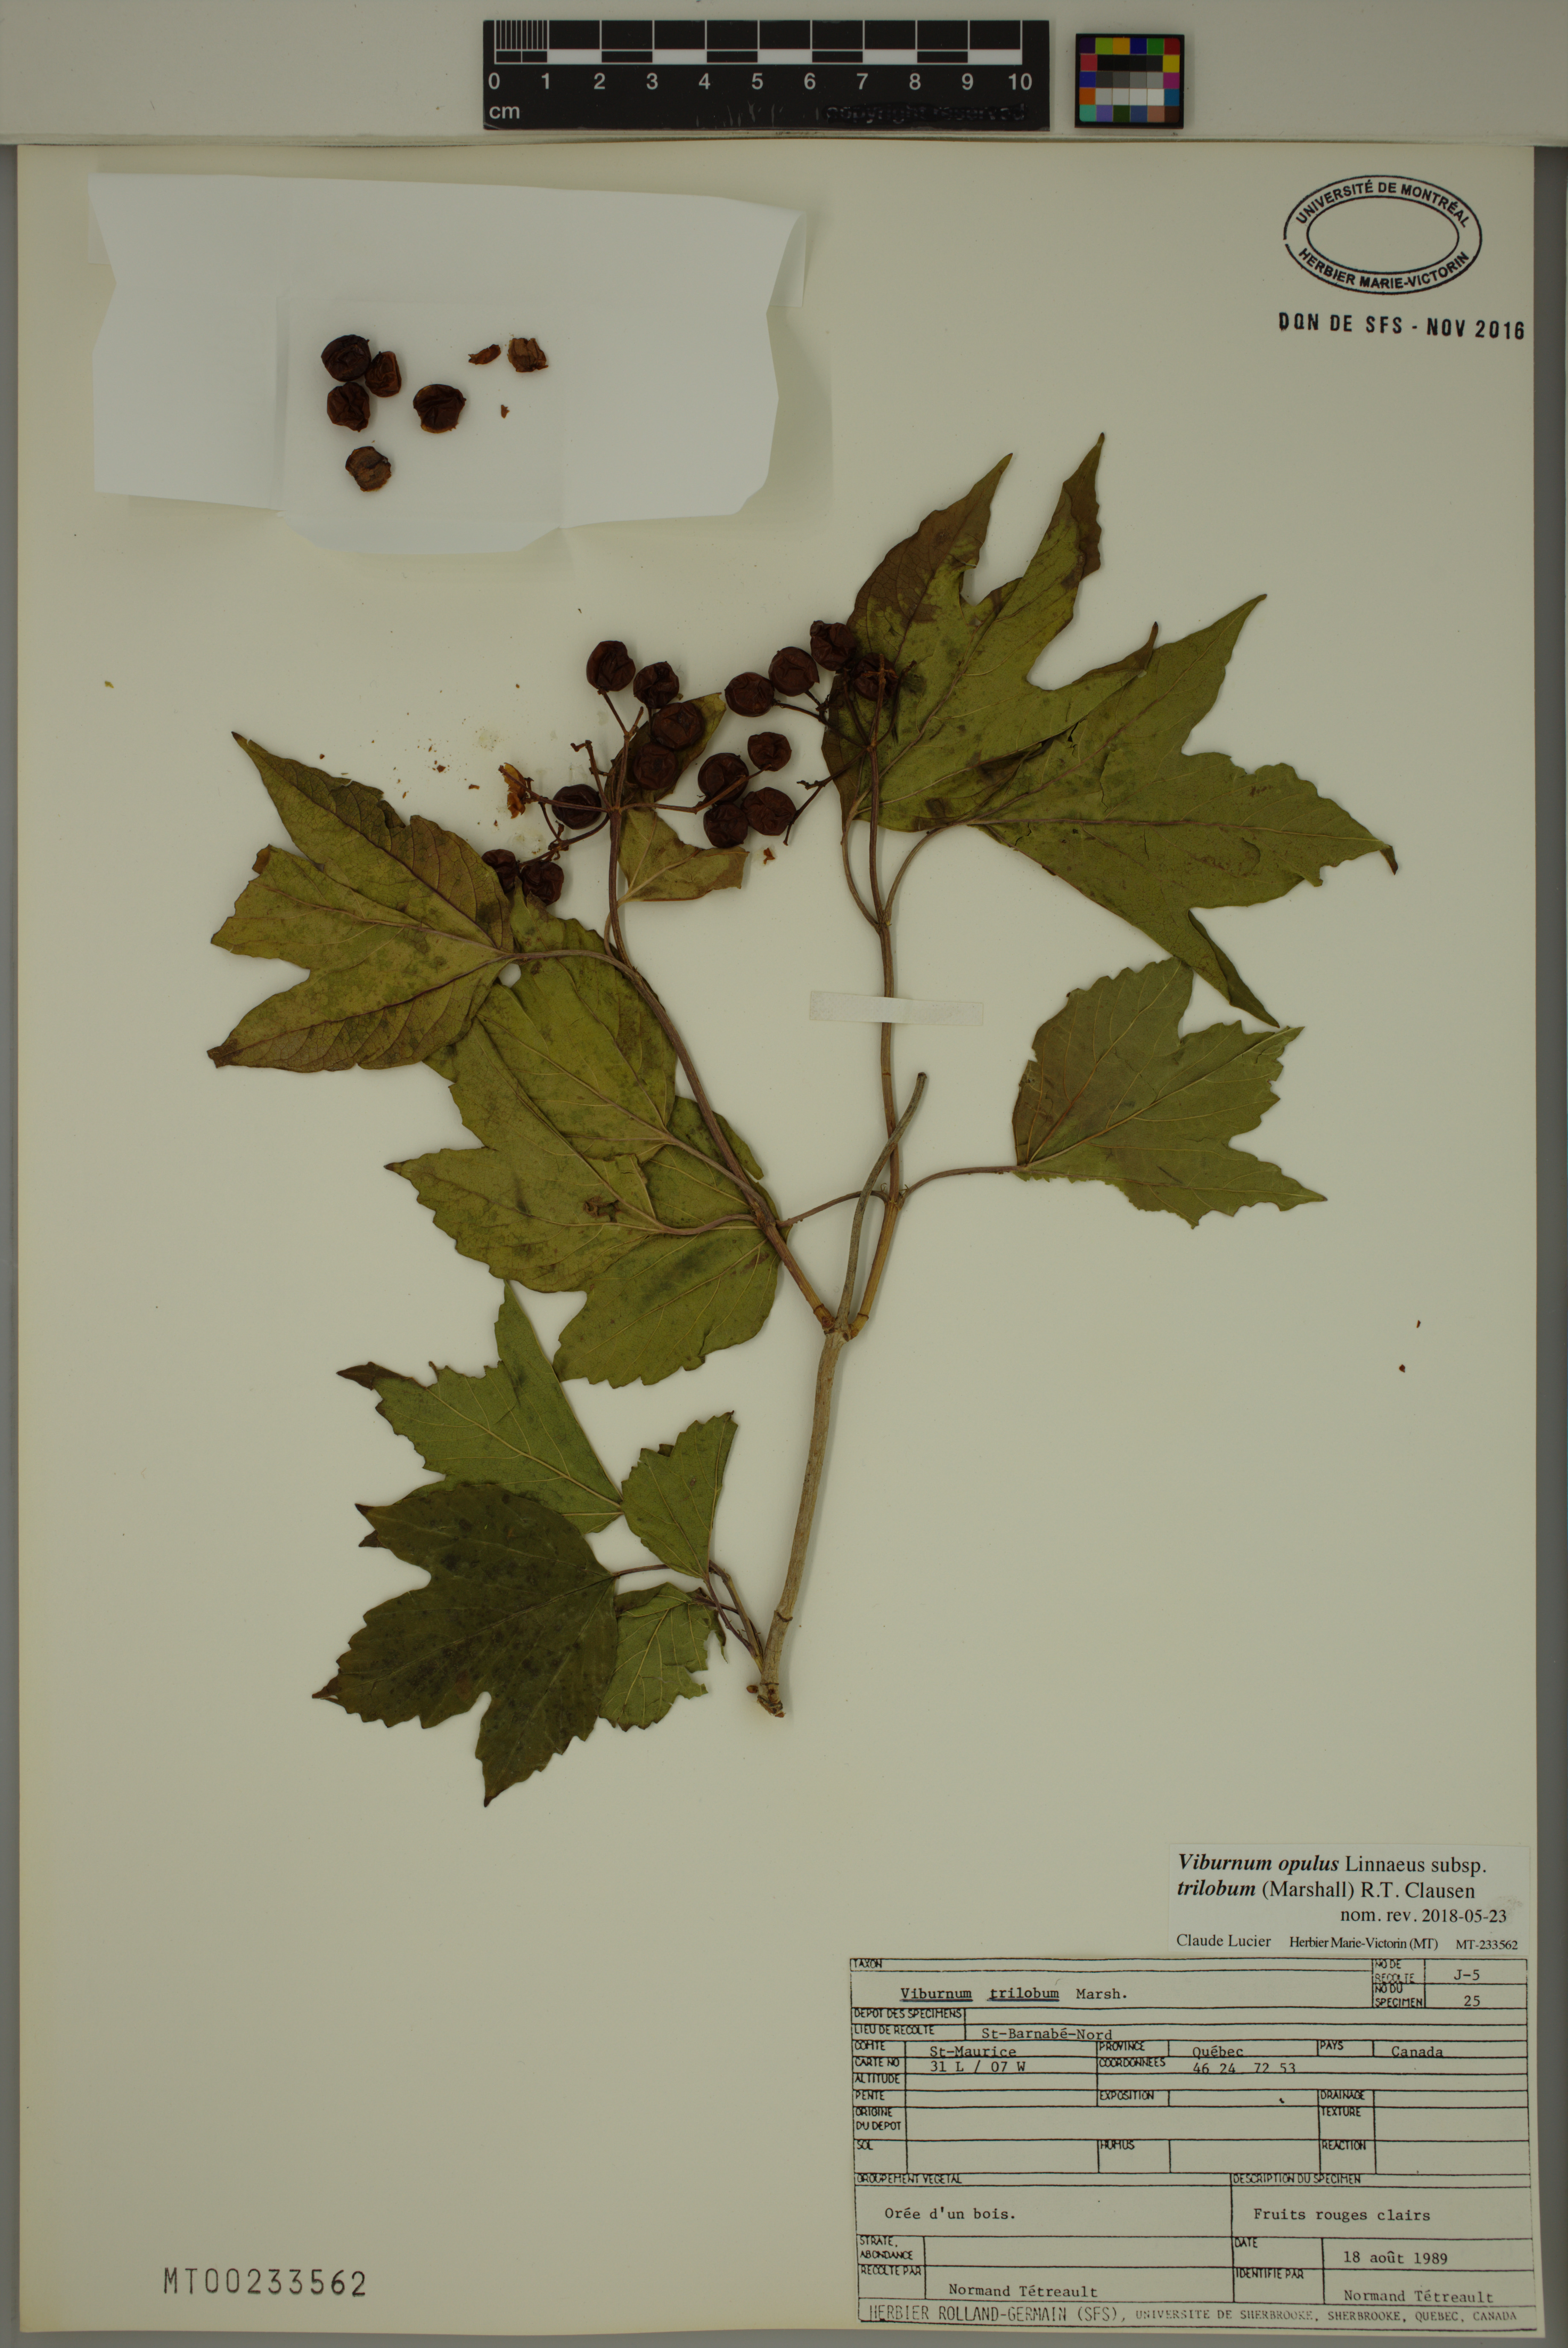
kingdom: Plantae
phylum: Tracheophyta
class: Magnoliopsida
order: Dipsacales
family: Viburnaceae
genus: Viburnum
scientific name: Viburnum trilobum
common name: American cranberrybush
